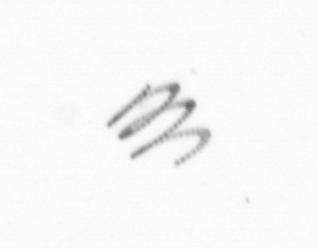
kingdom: Chromista
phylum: Ochrophyta
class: Bacillariophyceae
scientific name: Bacillariophyceae
